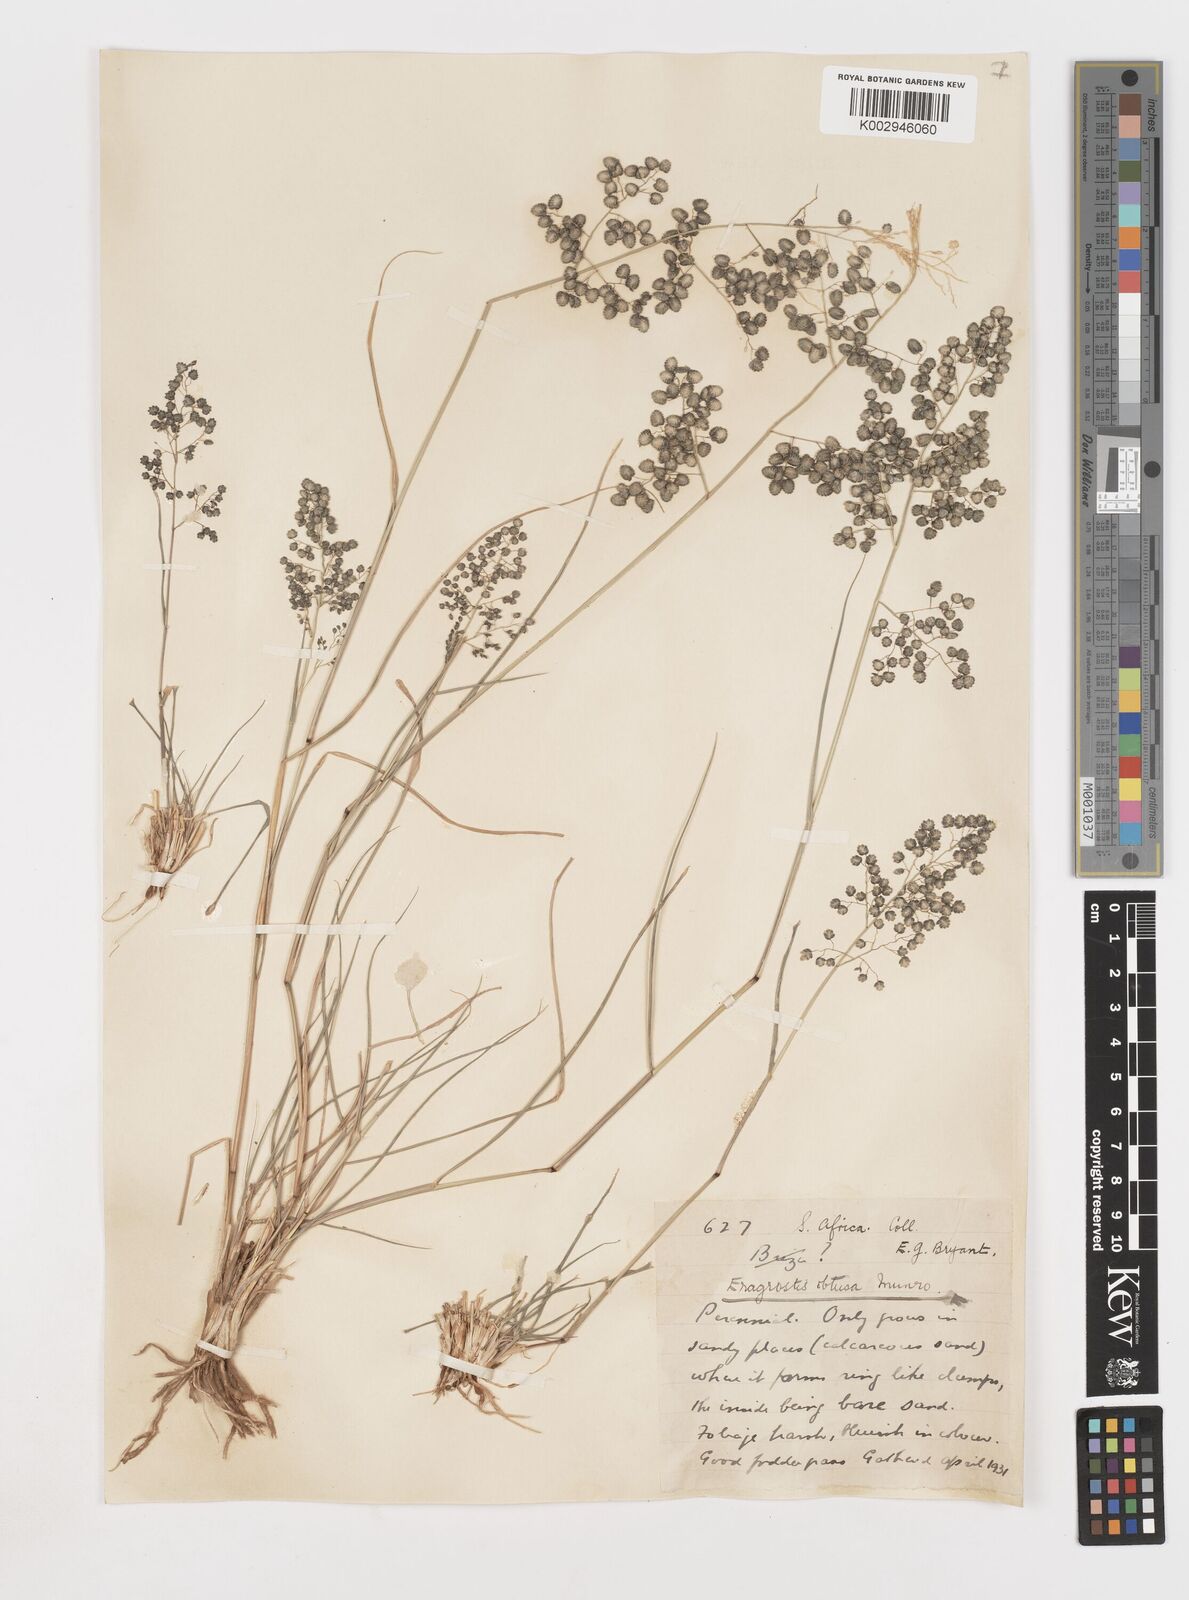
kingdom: Plantae
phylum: Tracheophyta
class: Liliopsida
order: Poales
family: Poaceae
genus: Eragrostis
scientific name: Eragrostis obtusa
